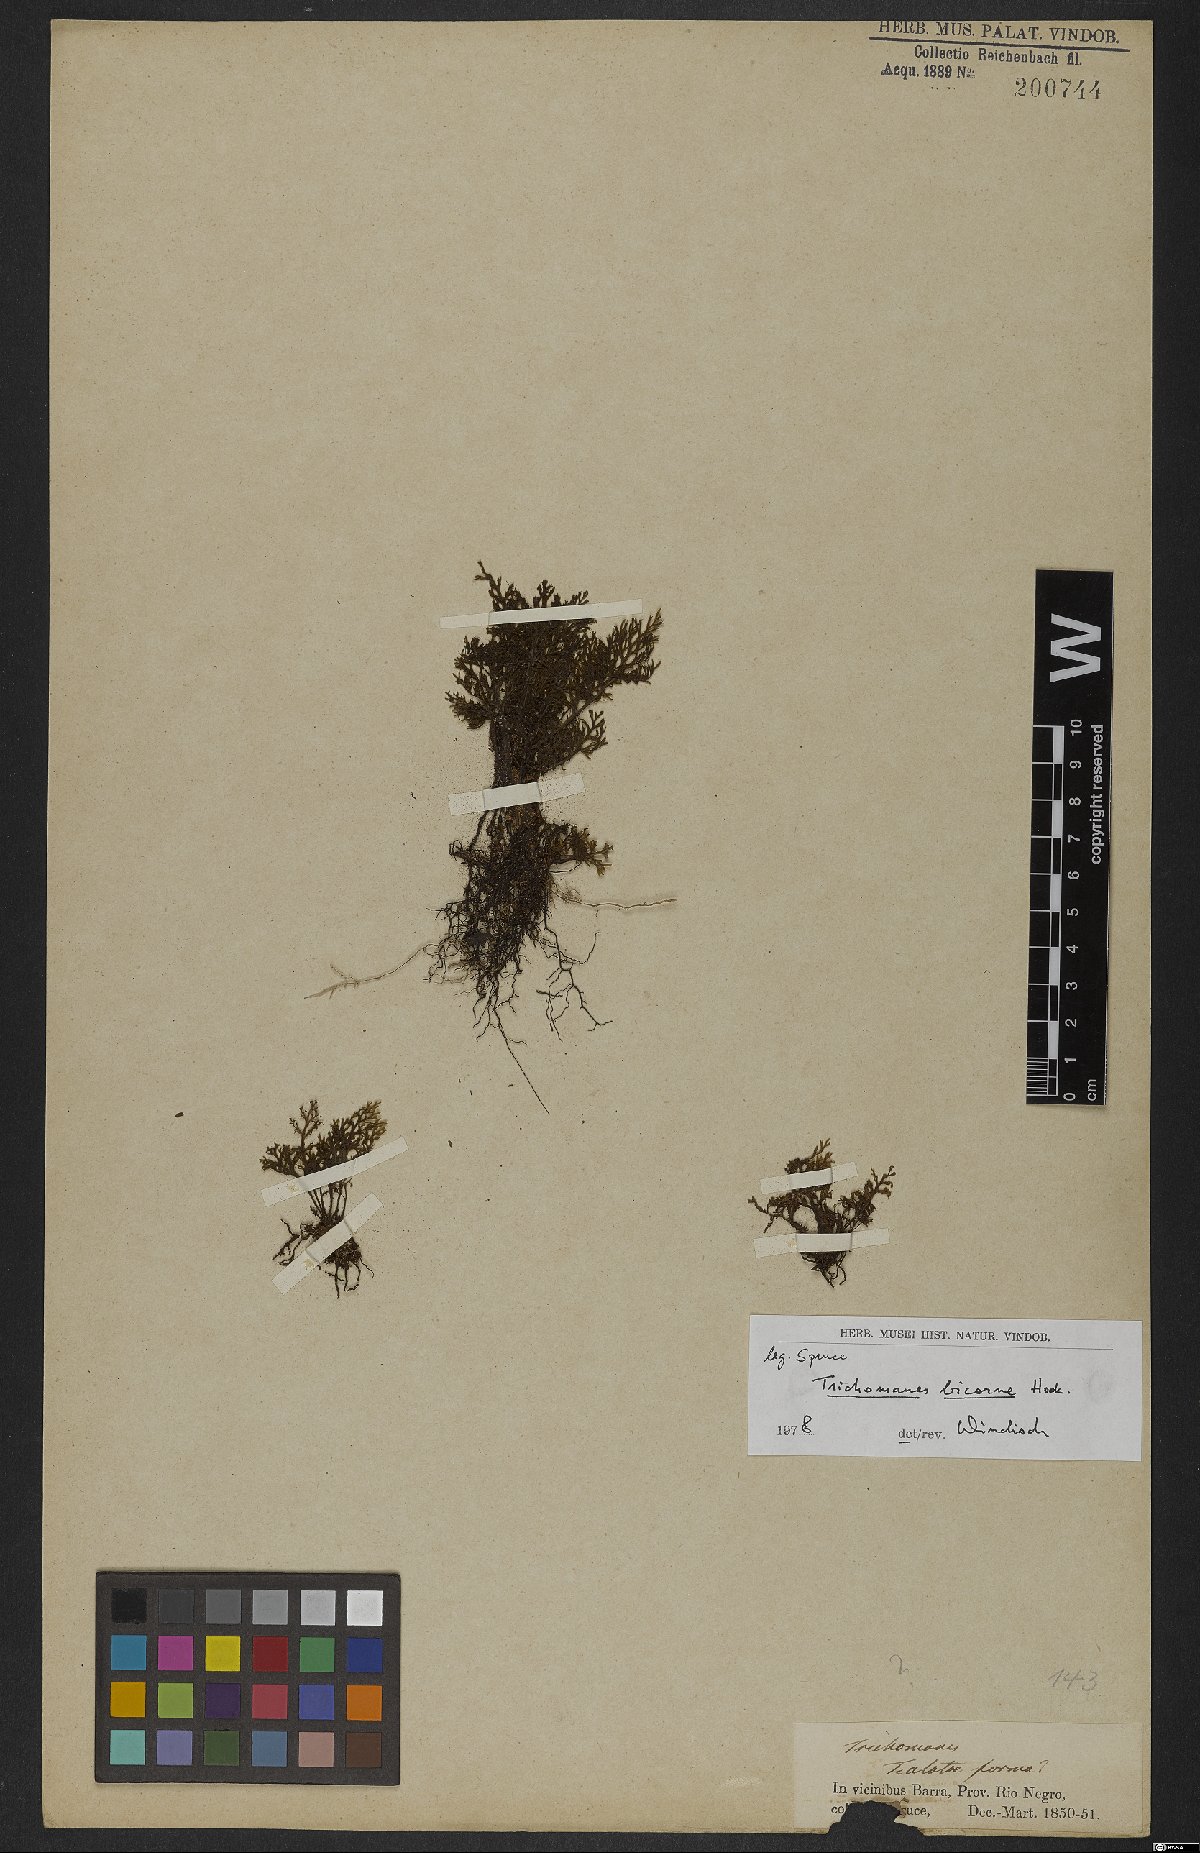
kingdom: Plantae
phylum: Tracheophyta
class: Polypodiopsida
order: Hymenophyllales
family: Hymenophyllaceae
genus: Trichomanes
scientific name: Trichomanes bicorne
